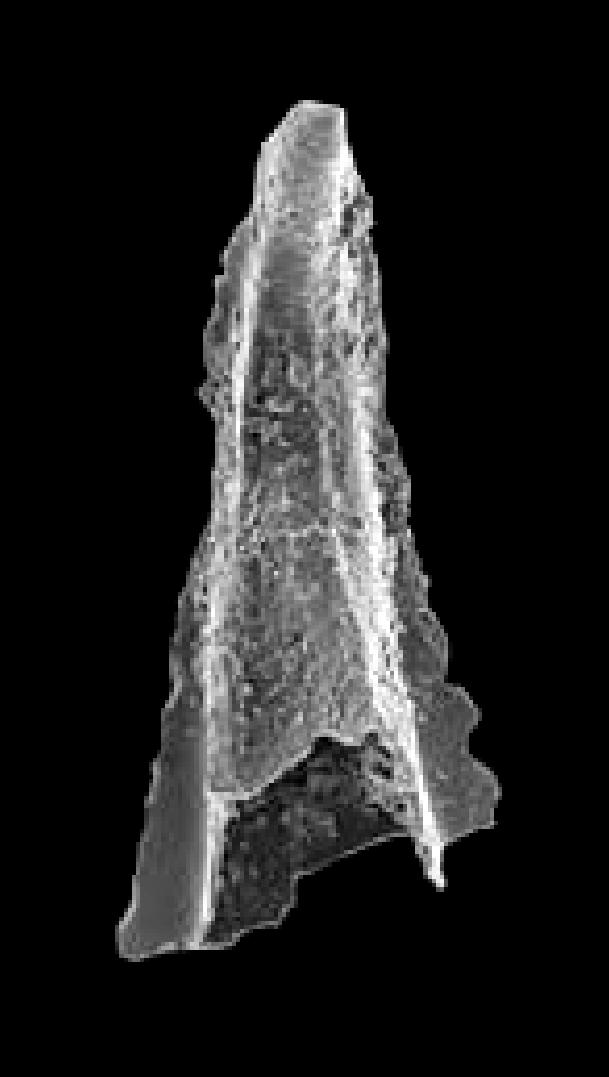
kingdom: Animalia
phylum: Chordata
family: Balognathidae
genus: Trapezognathus
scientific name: Trapezognathus Prioniodina diprion
